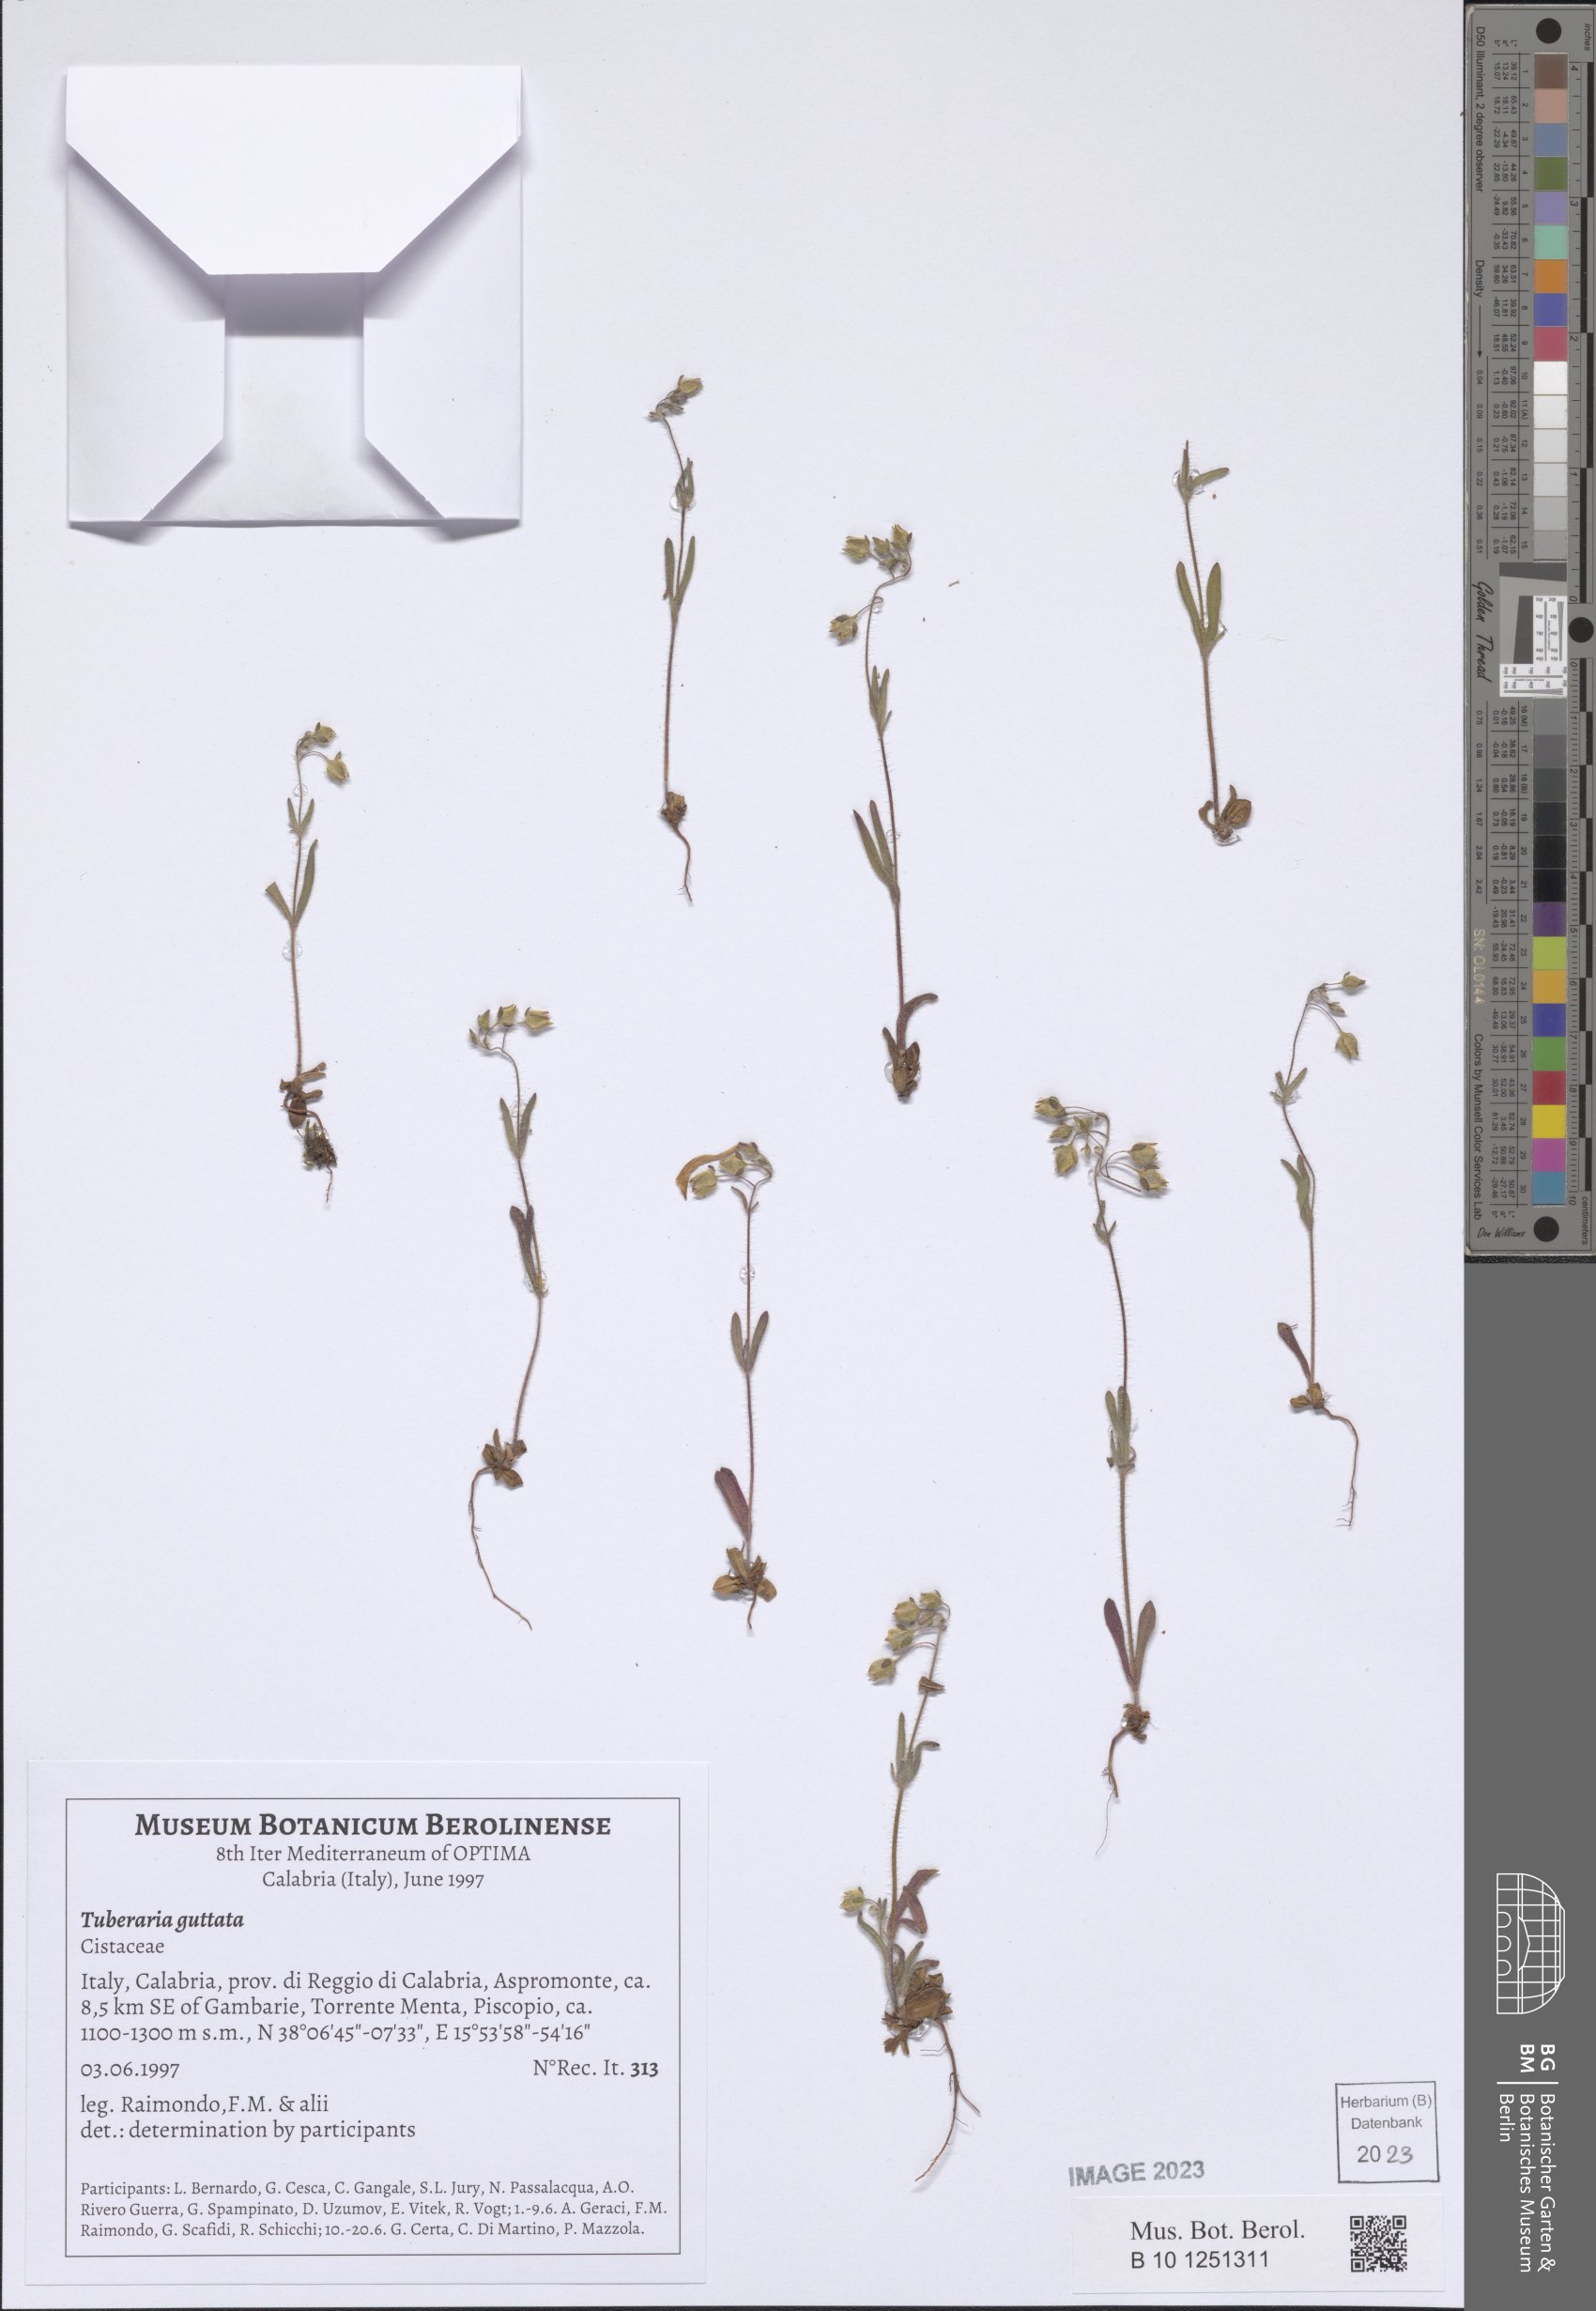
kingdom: Plantae
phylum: Tracheophyta
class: Magnoliopsida
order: Malvales
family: Cistaceae
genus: Tuberaria
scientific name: Tuberaria guttata
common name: Spotted rock-rose
